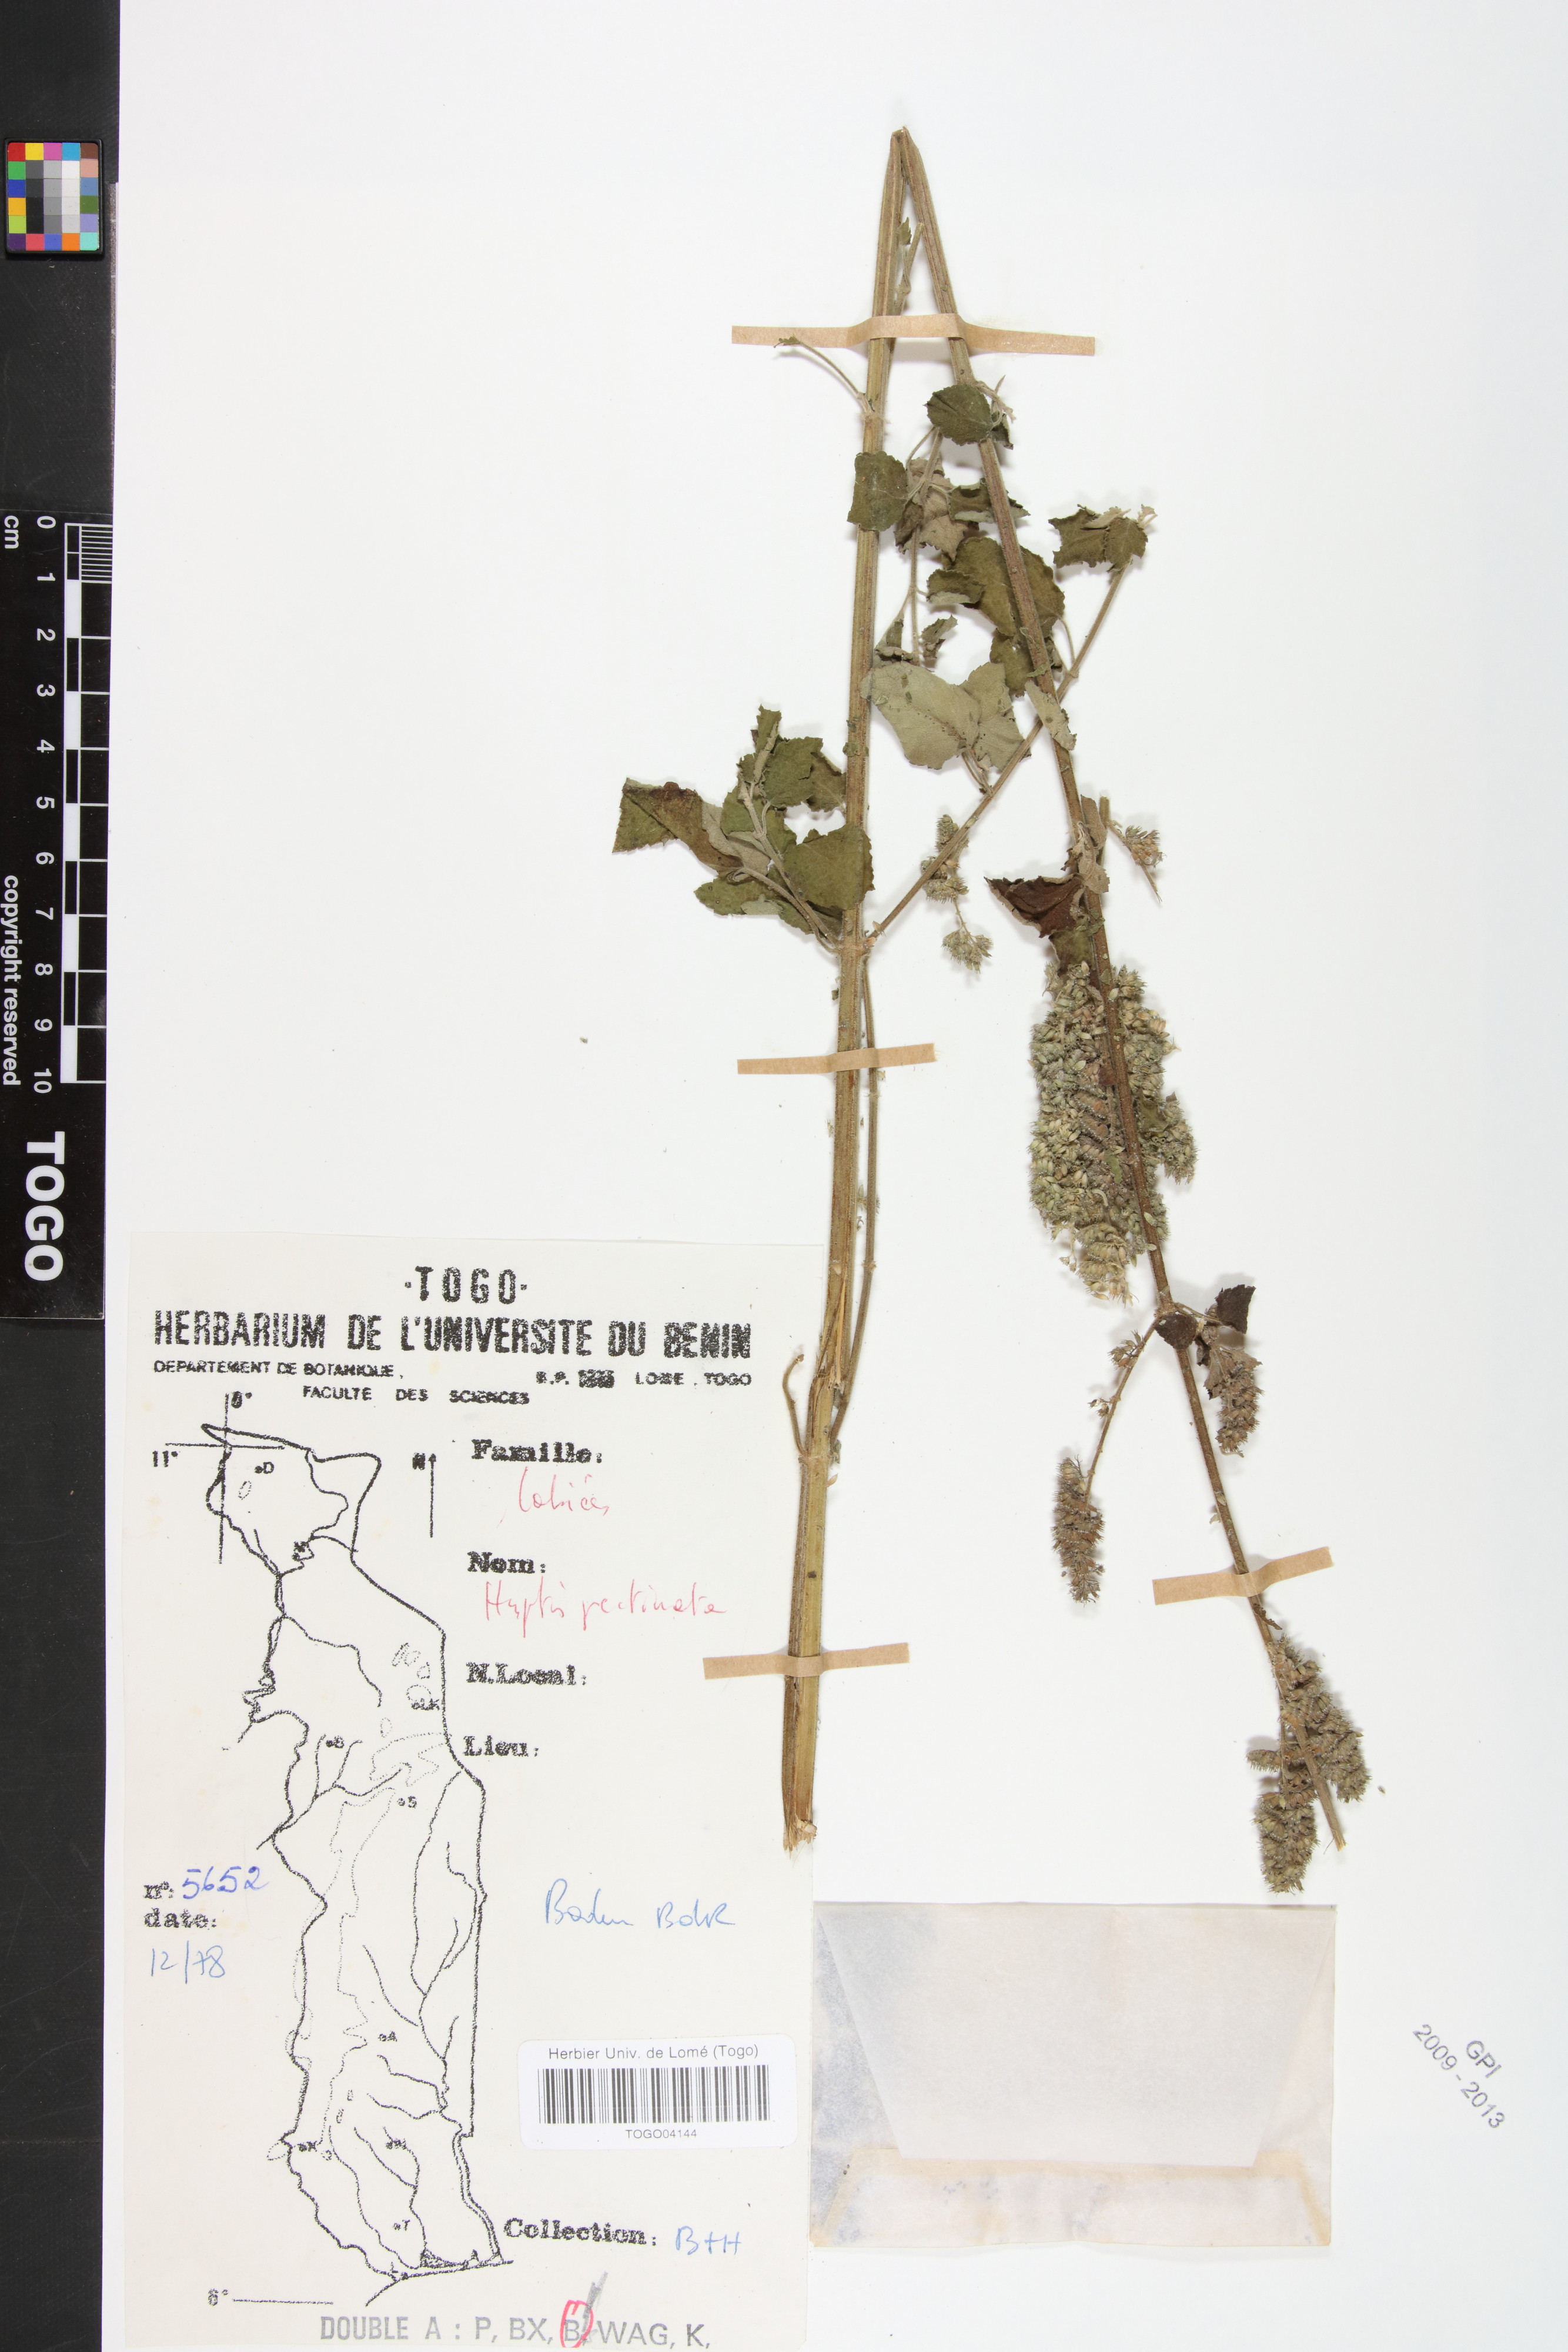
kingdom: Plantae
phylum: Tracheophyta
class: Magnoliopsida
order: Lamiales
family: Lamiaceae
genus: Mesosphaerum
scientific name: Mesosphaerum pectinatum
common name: Comb hyptis
